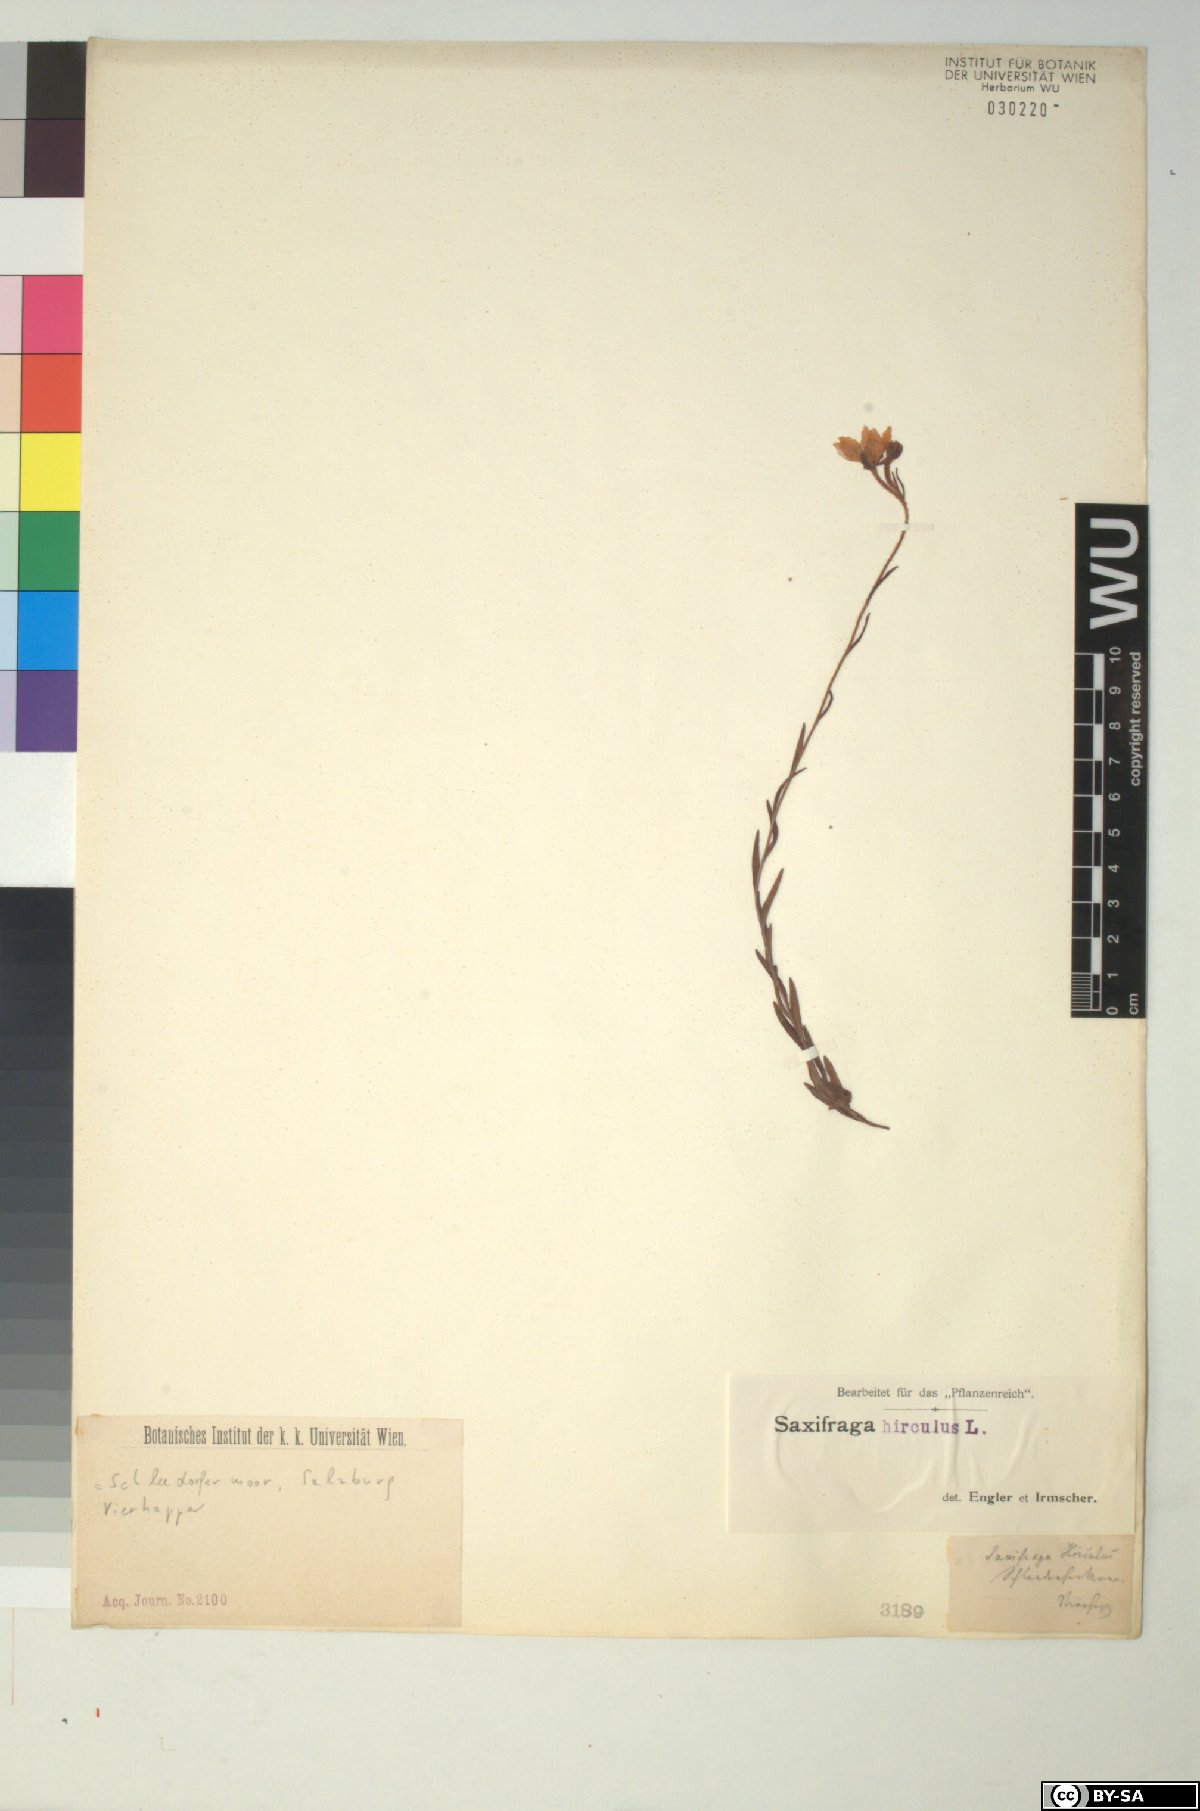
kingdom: Plantae
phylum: Tracheophyta
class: Magnoliopsida
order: Saxifragales
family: Saxifragaceae
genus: Saxifraga
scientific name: Saxifraga hirculus
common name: Yellow marsh saxifrage
